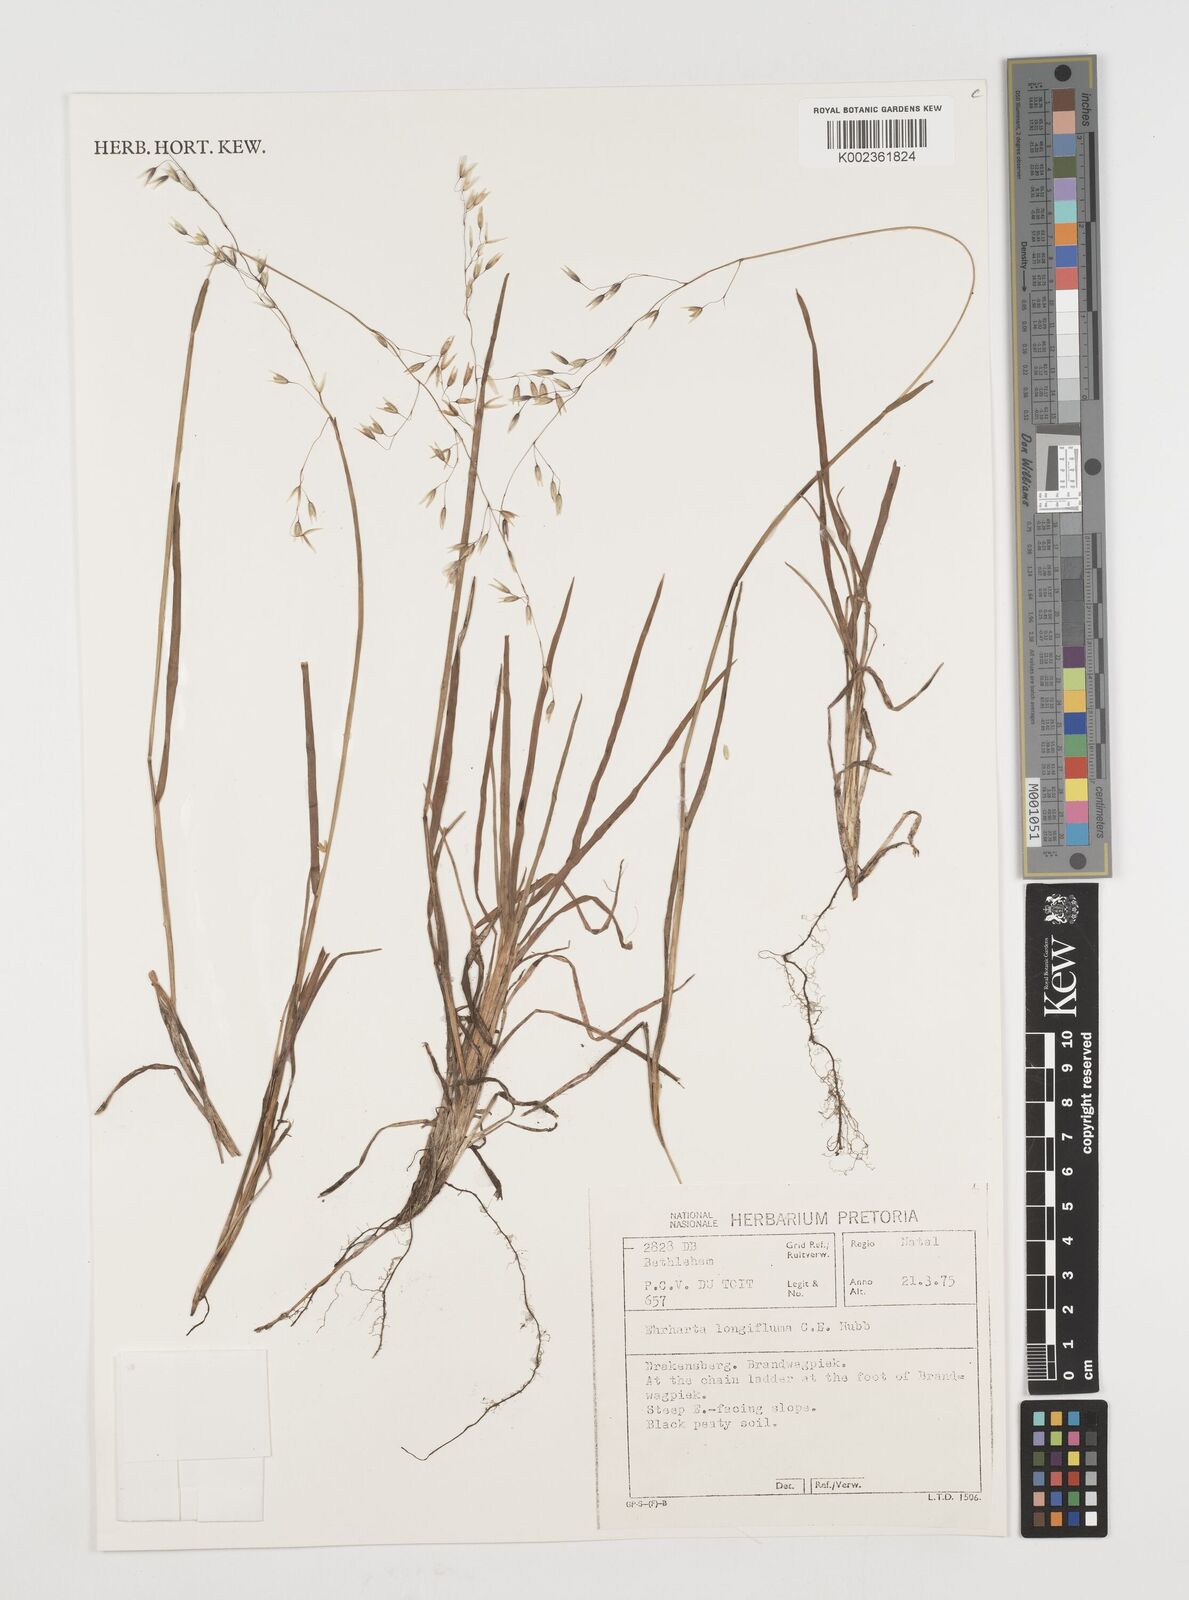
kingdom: Plantae
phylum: Tracheophyta
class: Liliopsida
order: Poales
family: Poaceae
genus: Ehrharta
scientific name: Ehrharta longigluma
